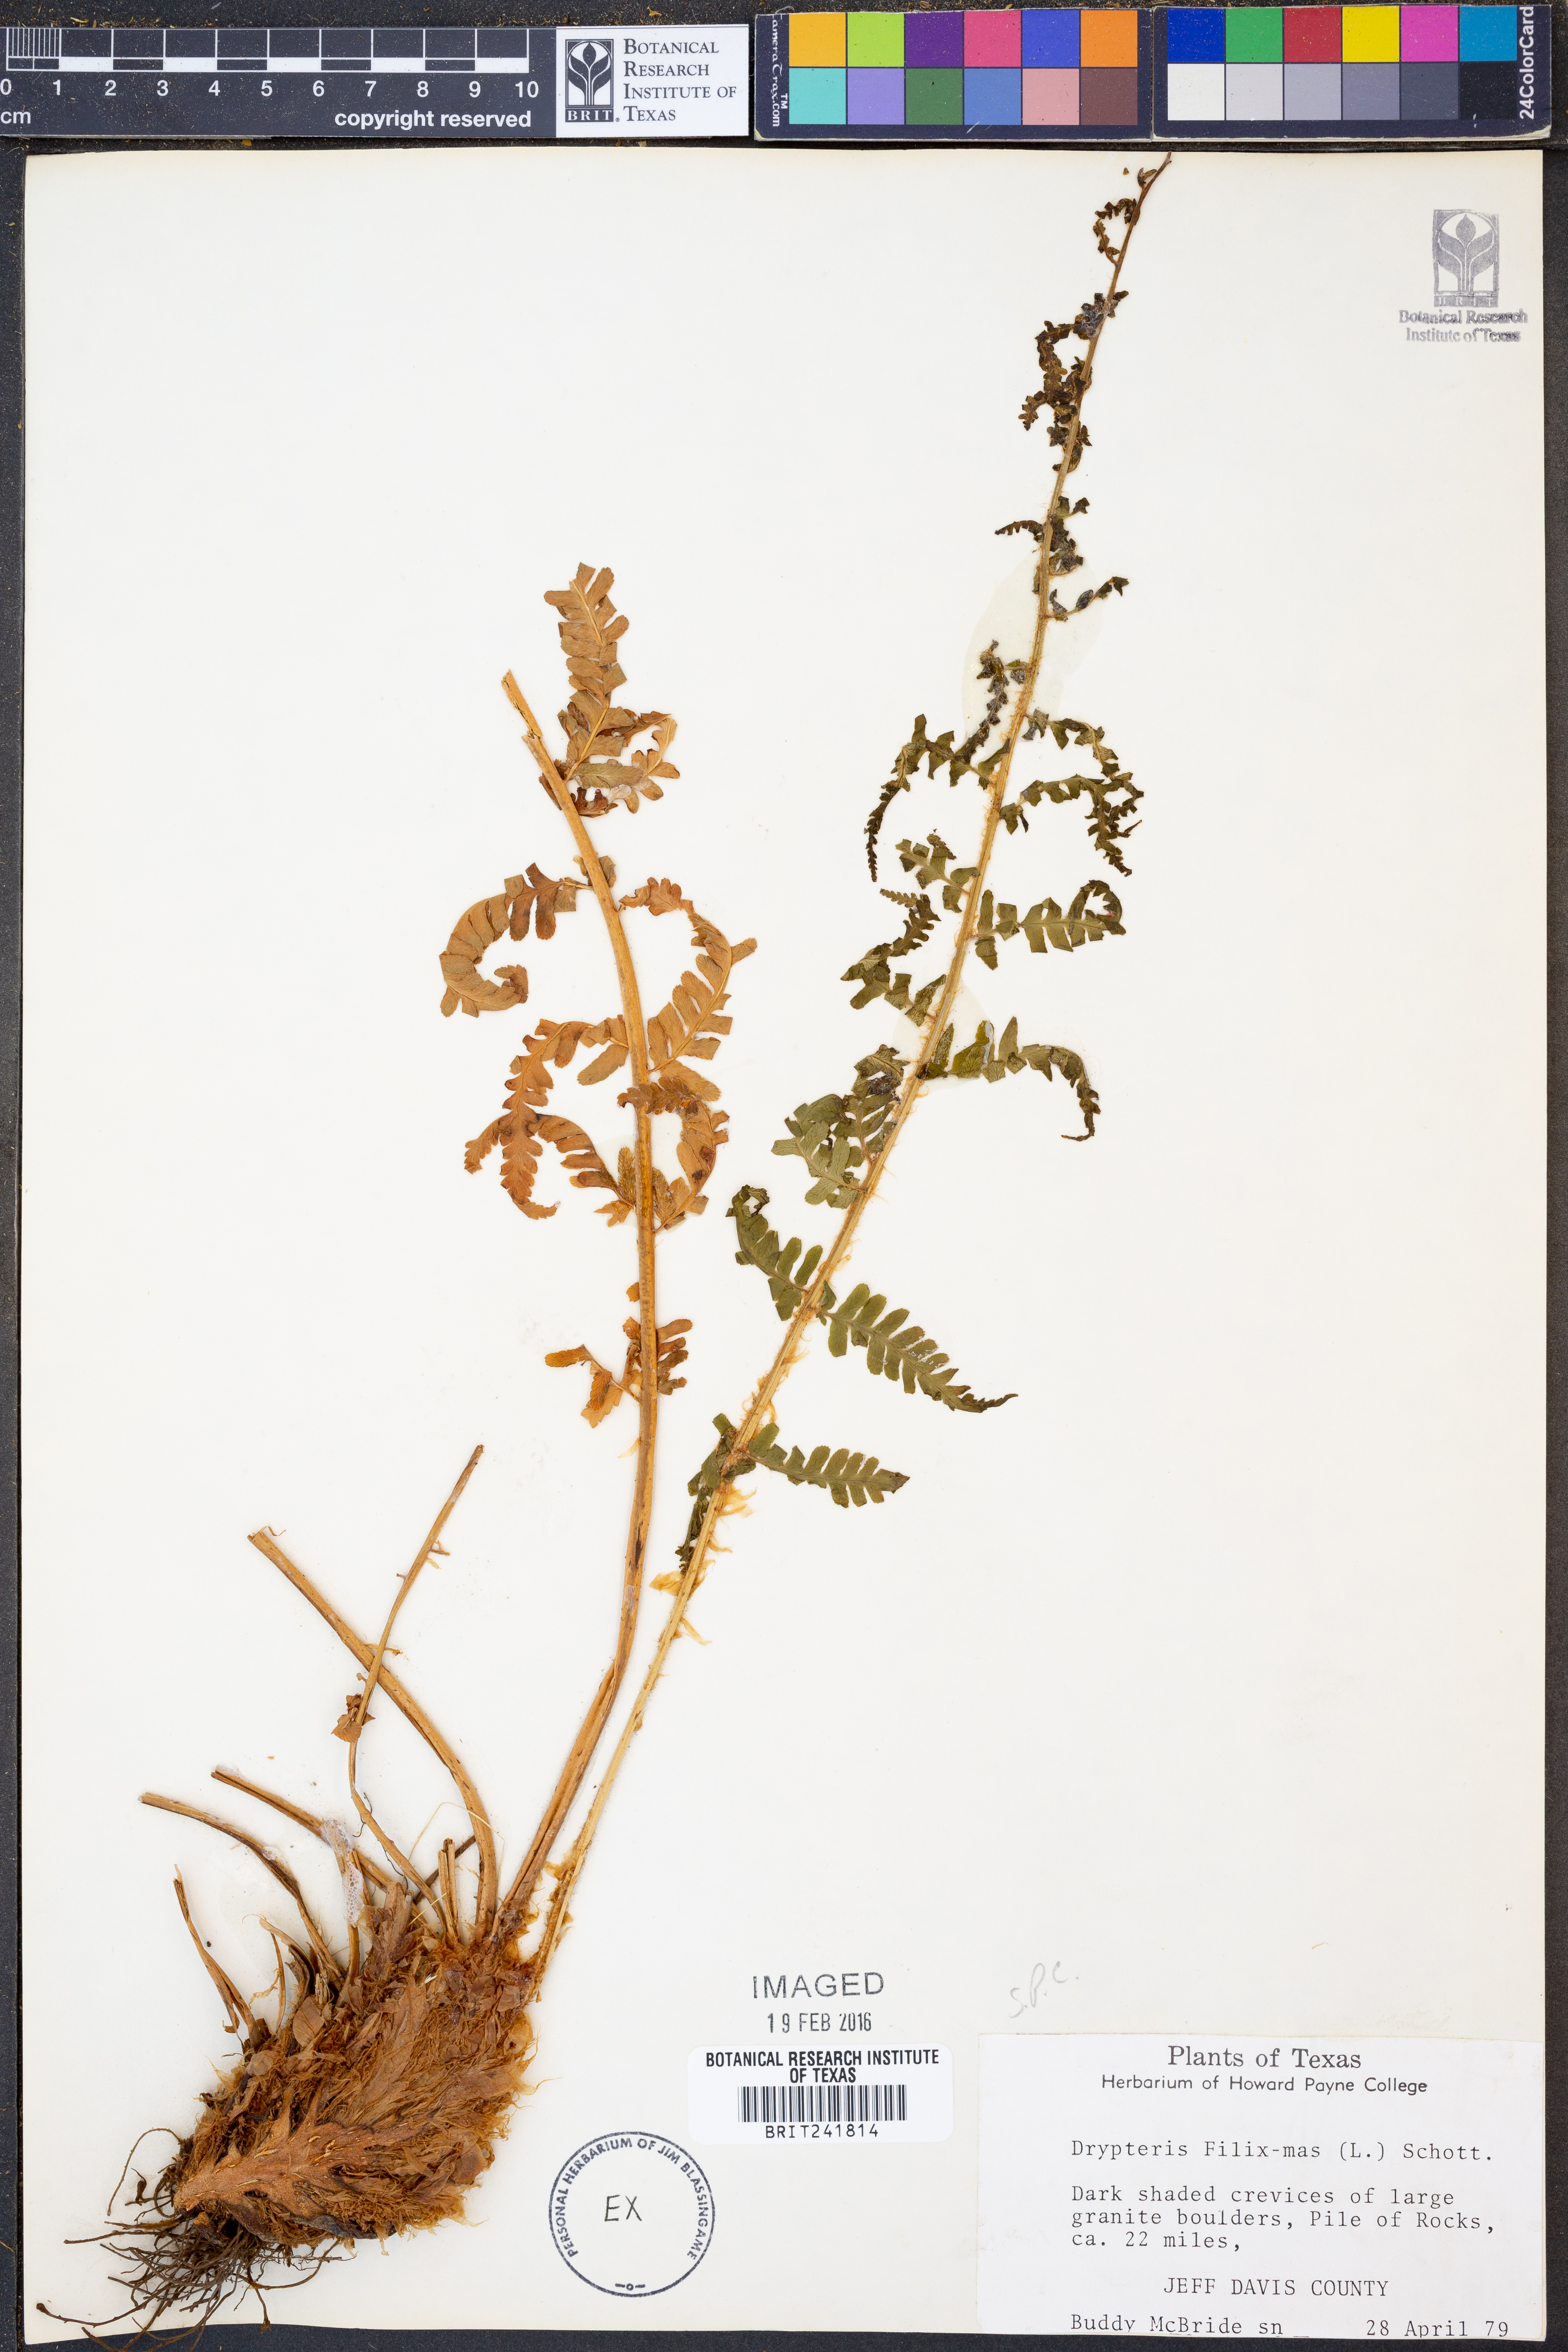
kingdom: Plantae
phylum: Tracheophyta
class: Polypodiopsida
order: Polypodiales
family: Dryopteridaceae
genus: Dryopteris
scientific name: Dryopteris filix-mas
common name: Male fern
